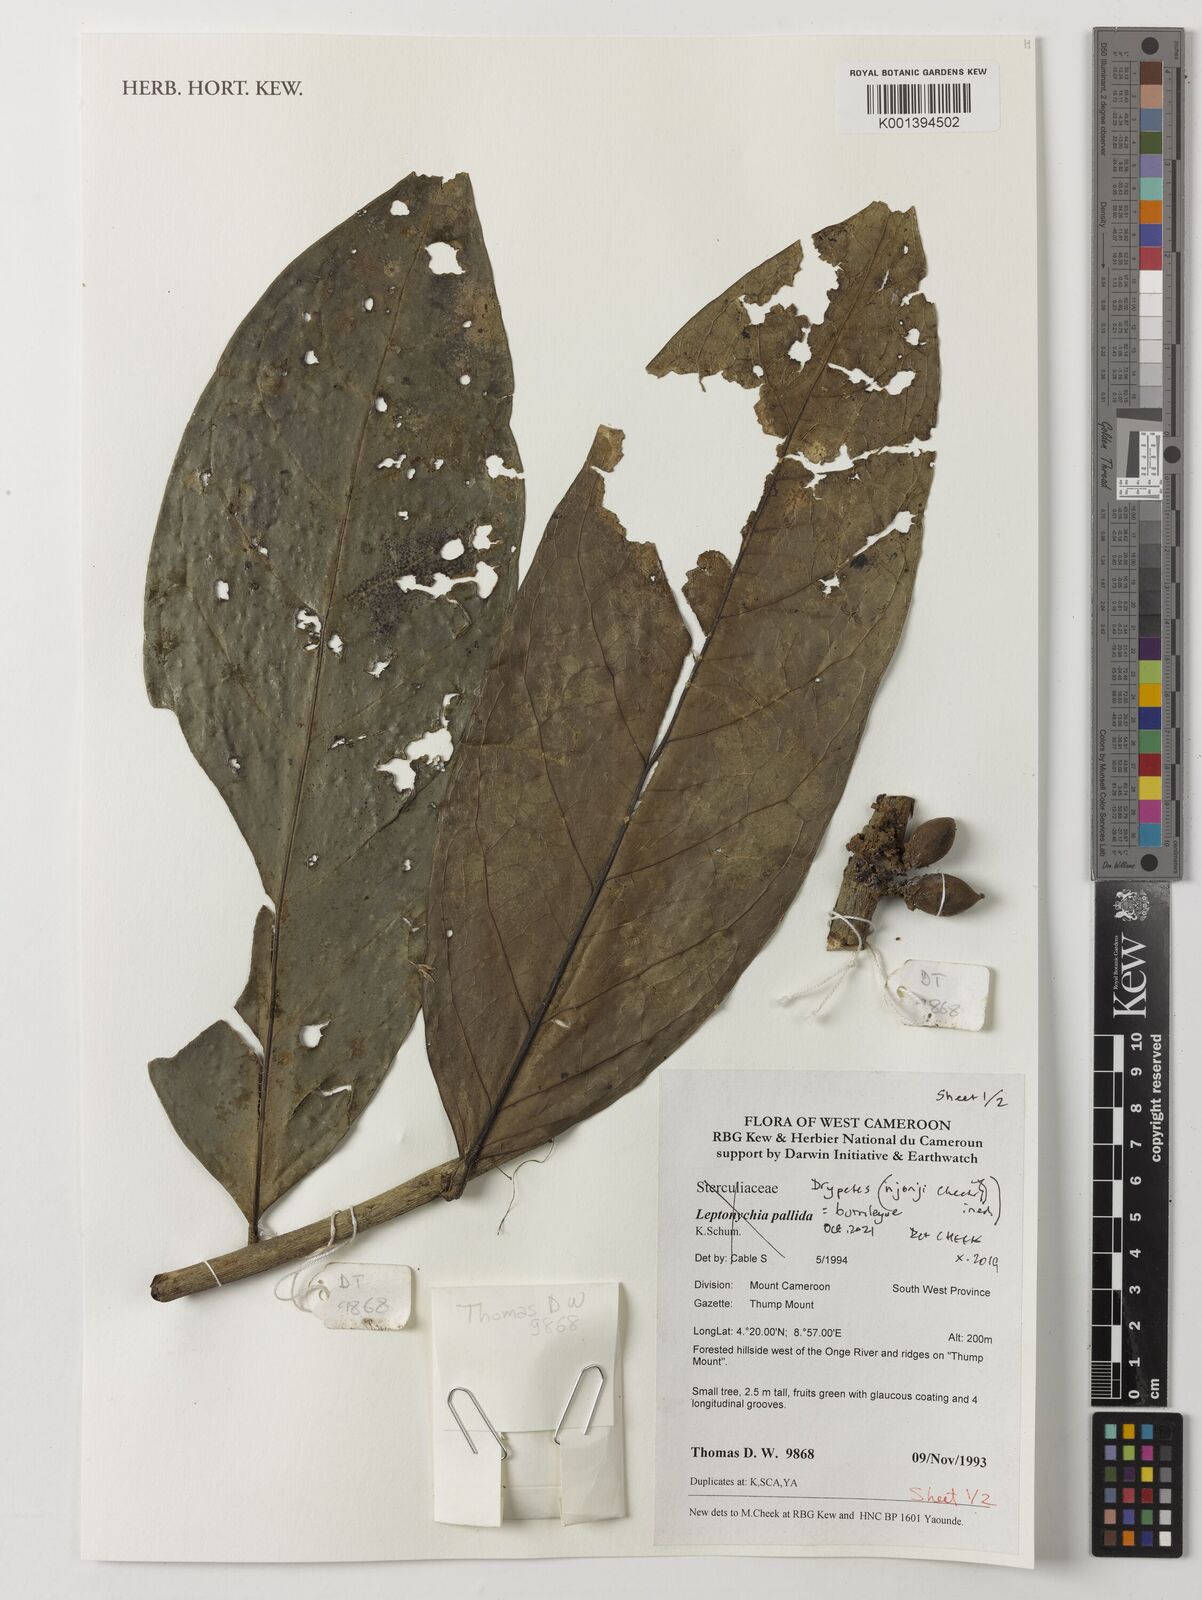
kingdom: Plantae
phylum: Tracheophyta
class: Magnoliopsida
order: Malpighiales
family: Putranjivaceae
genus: Drypetes
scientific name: Drypetes
